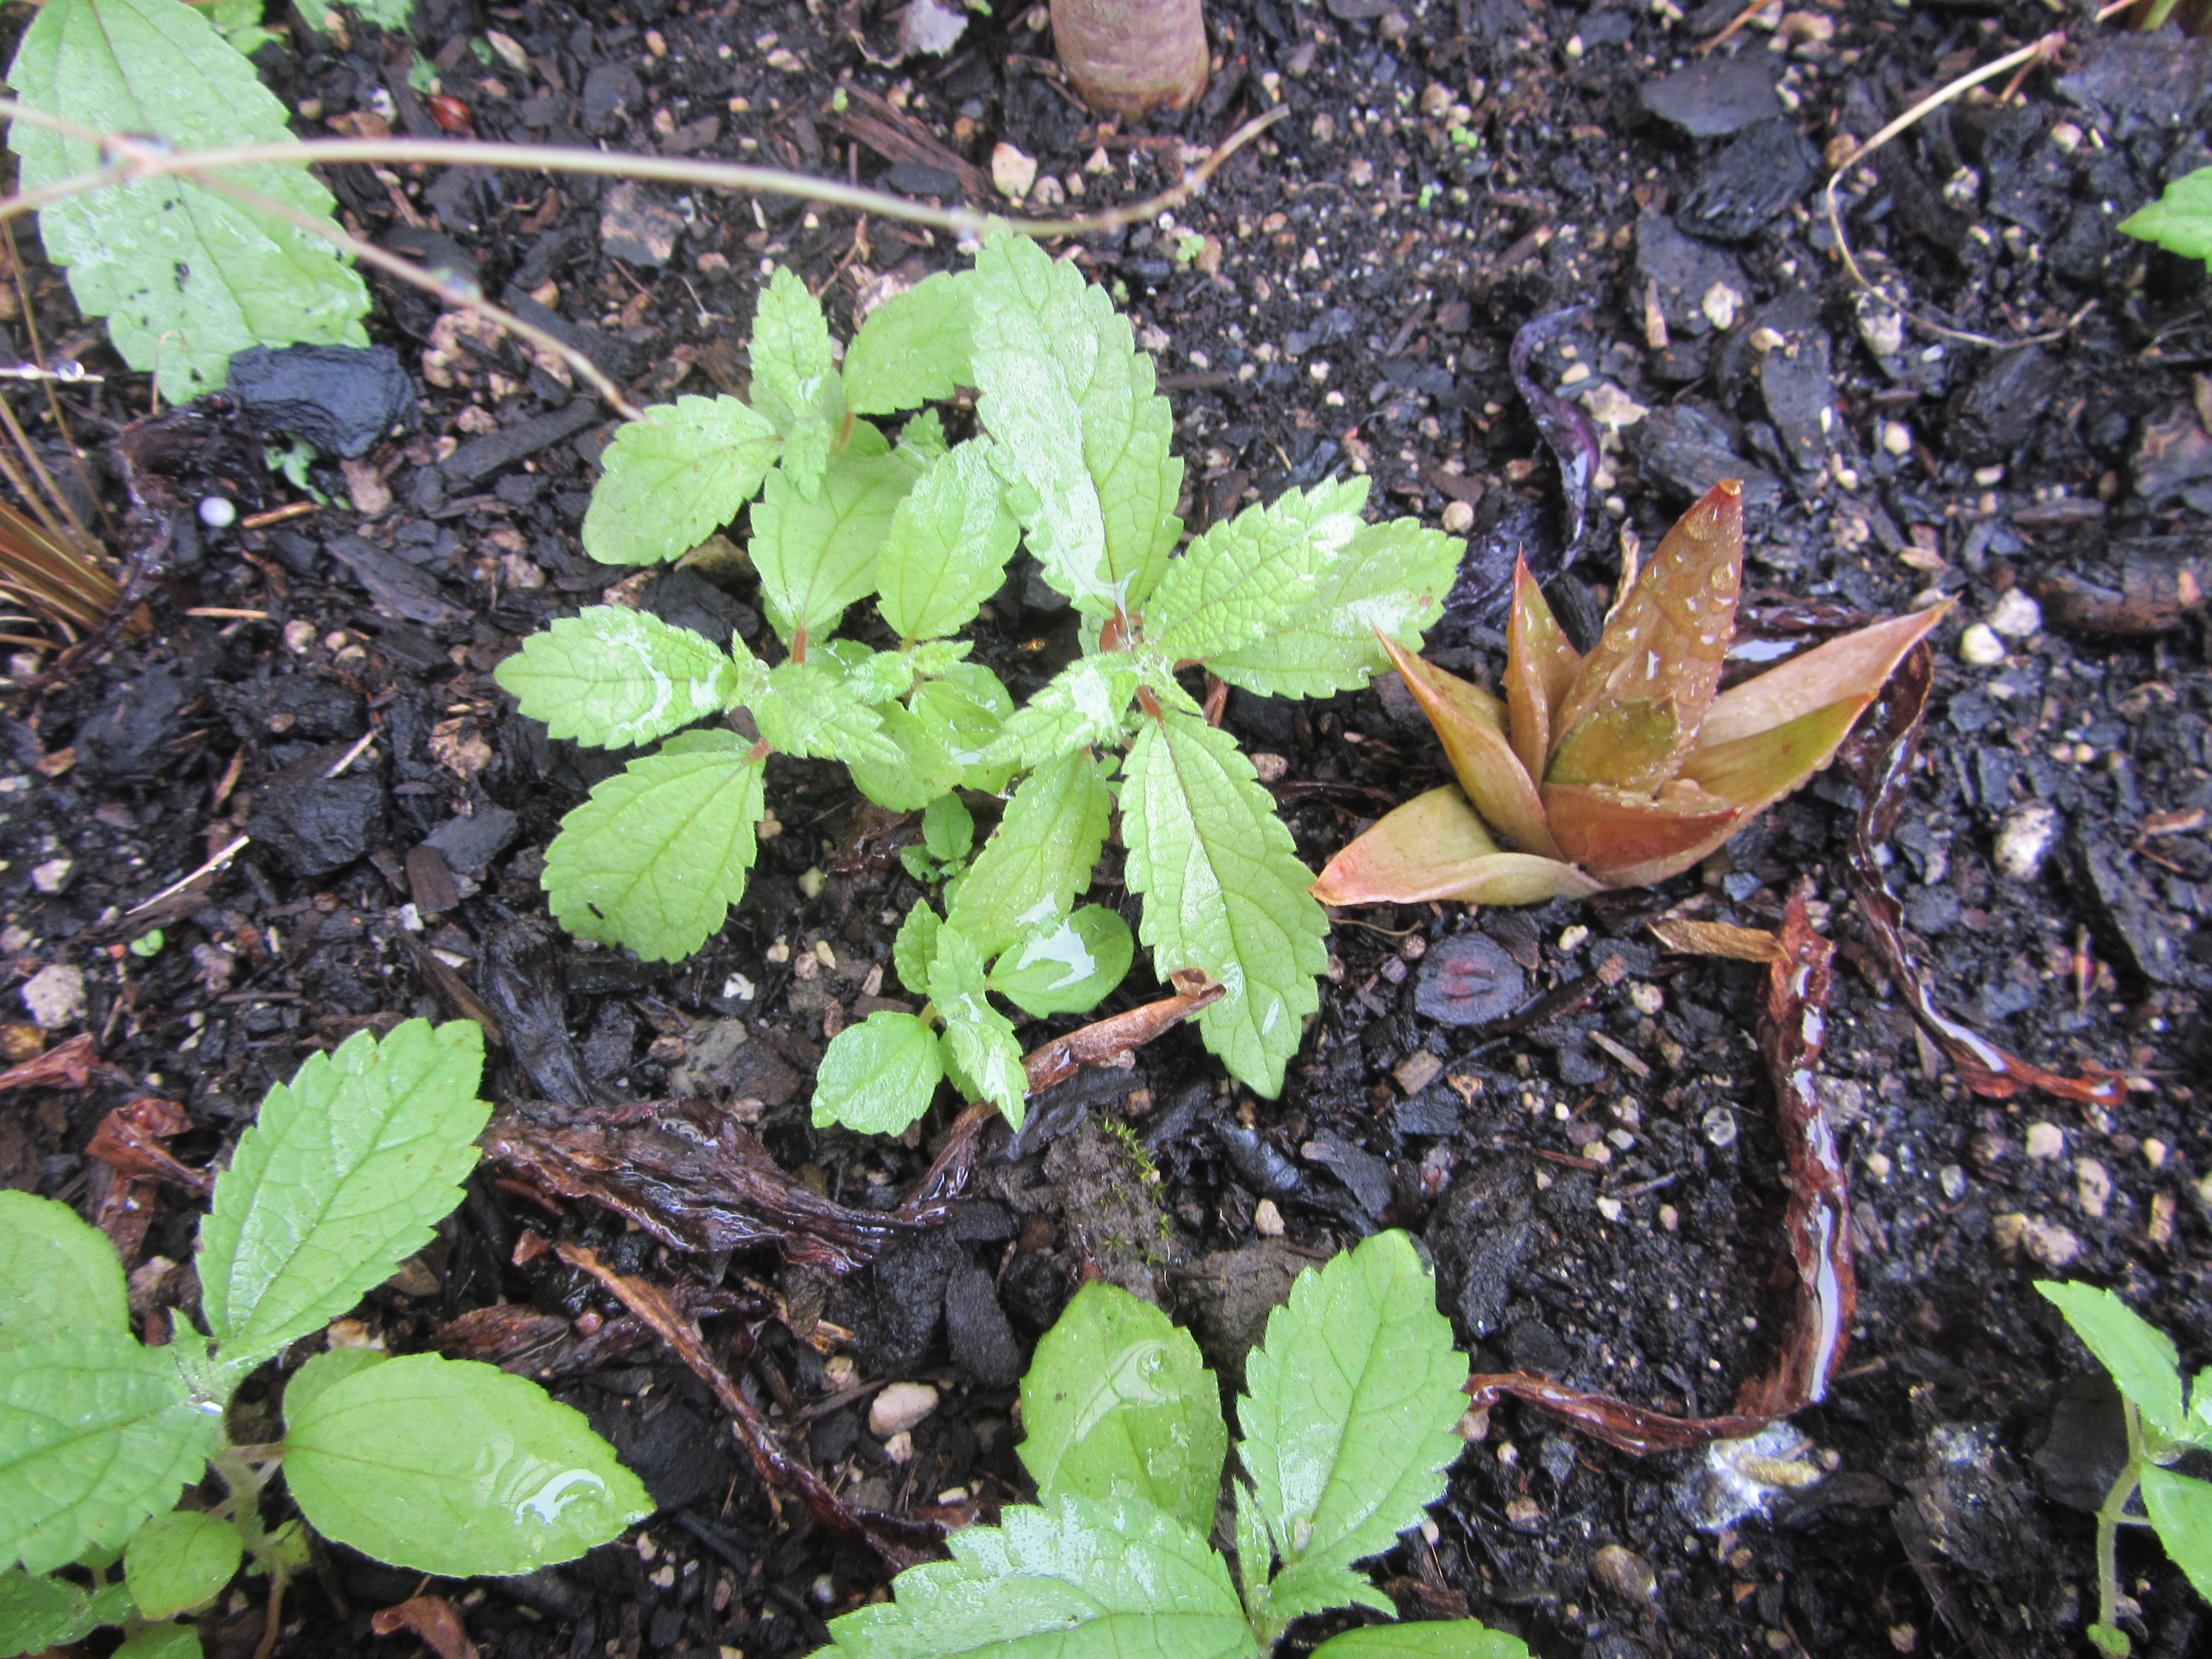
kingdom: Plantae
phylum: Tracheophyta
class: Magnoliopsida
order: Rosales
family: Urticaceae
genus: Debregeasia
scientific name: Debregeasia longifolia
